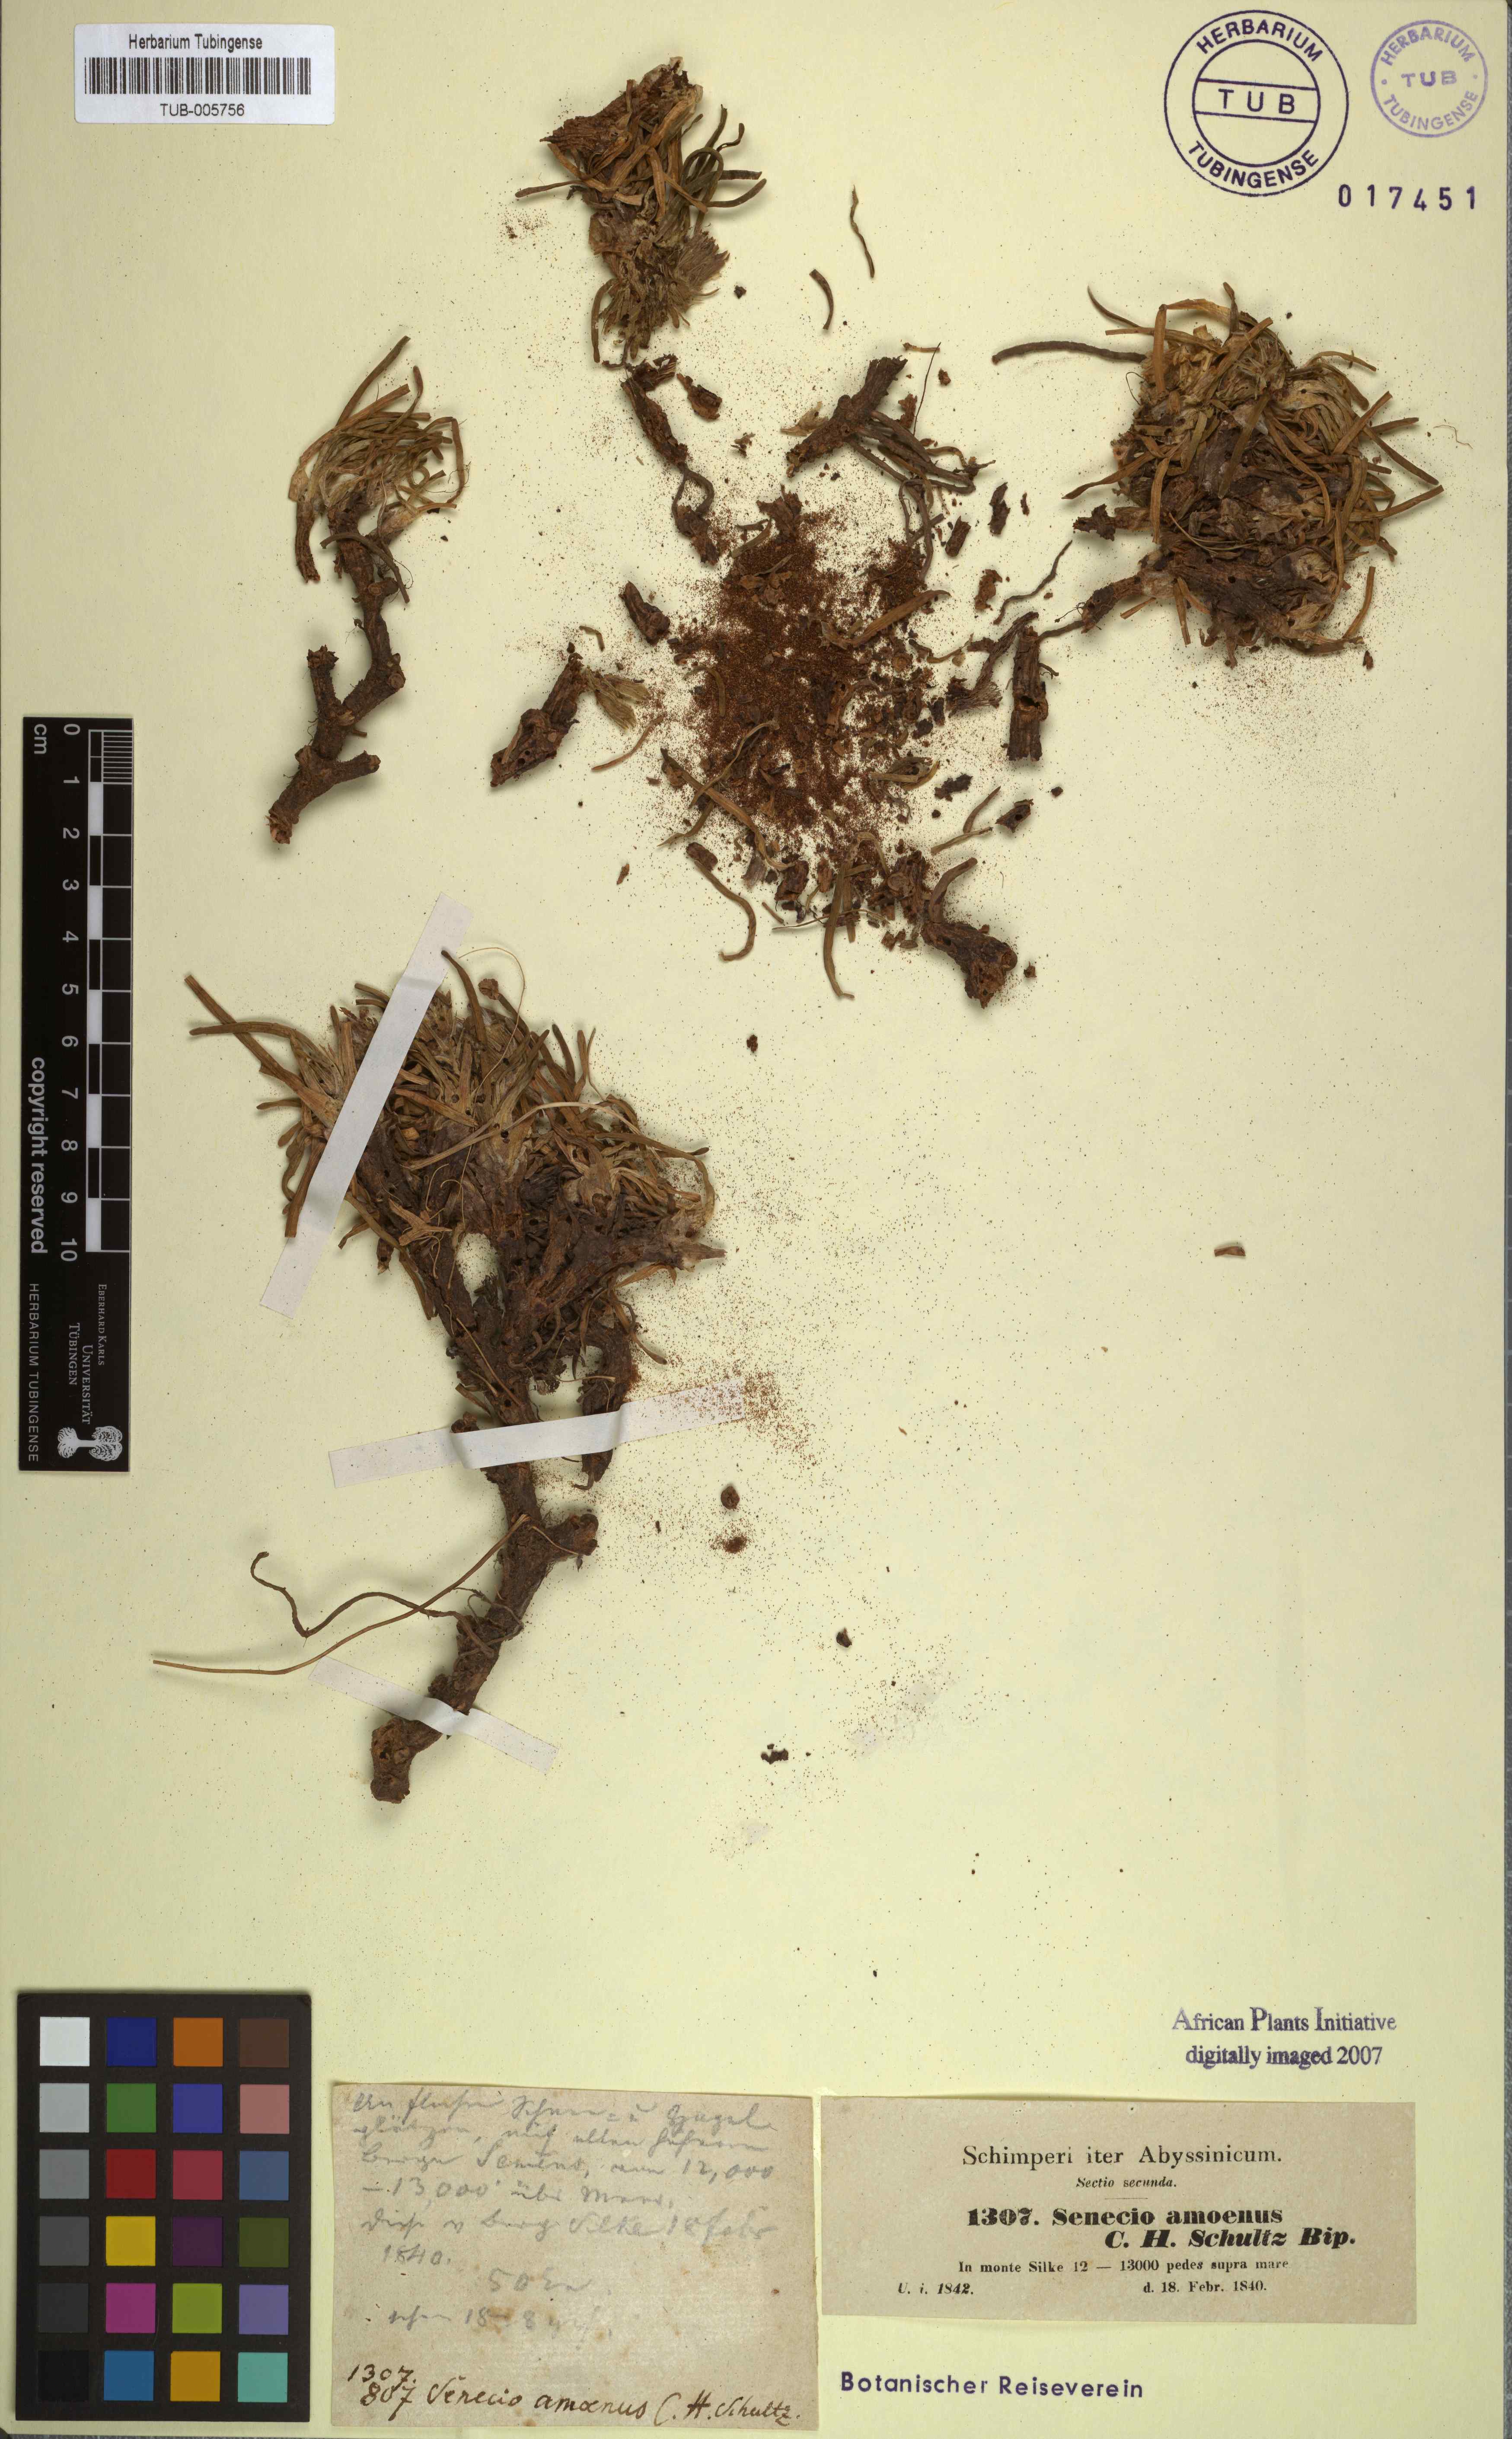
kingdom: Plantae
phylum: Tracheophyta
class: Magnoliopsida
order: Asterales
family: Asteraceae
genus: Senecio
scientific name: Senecio nanus
